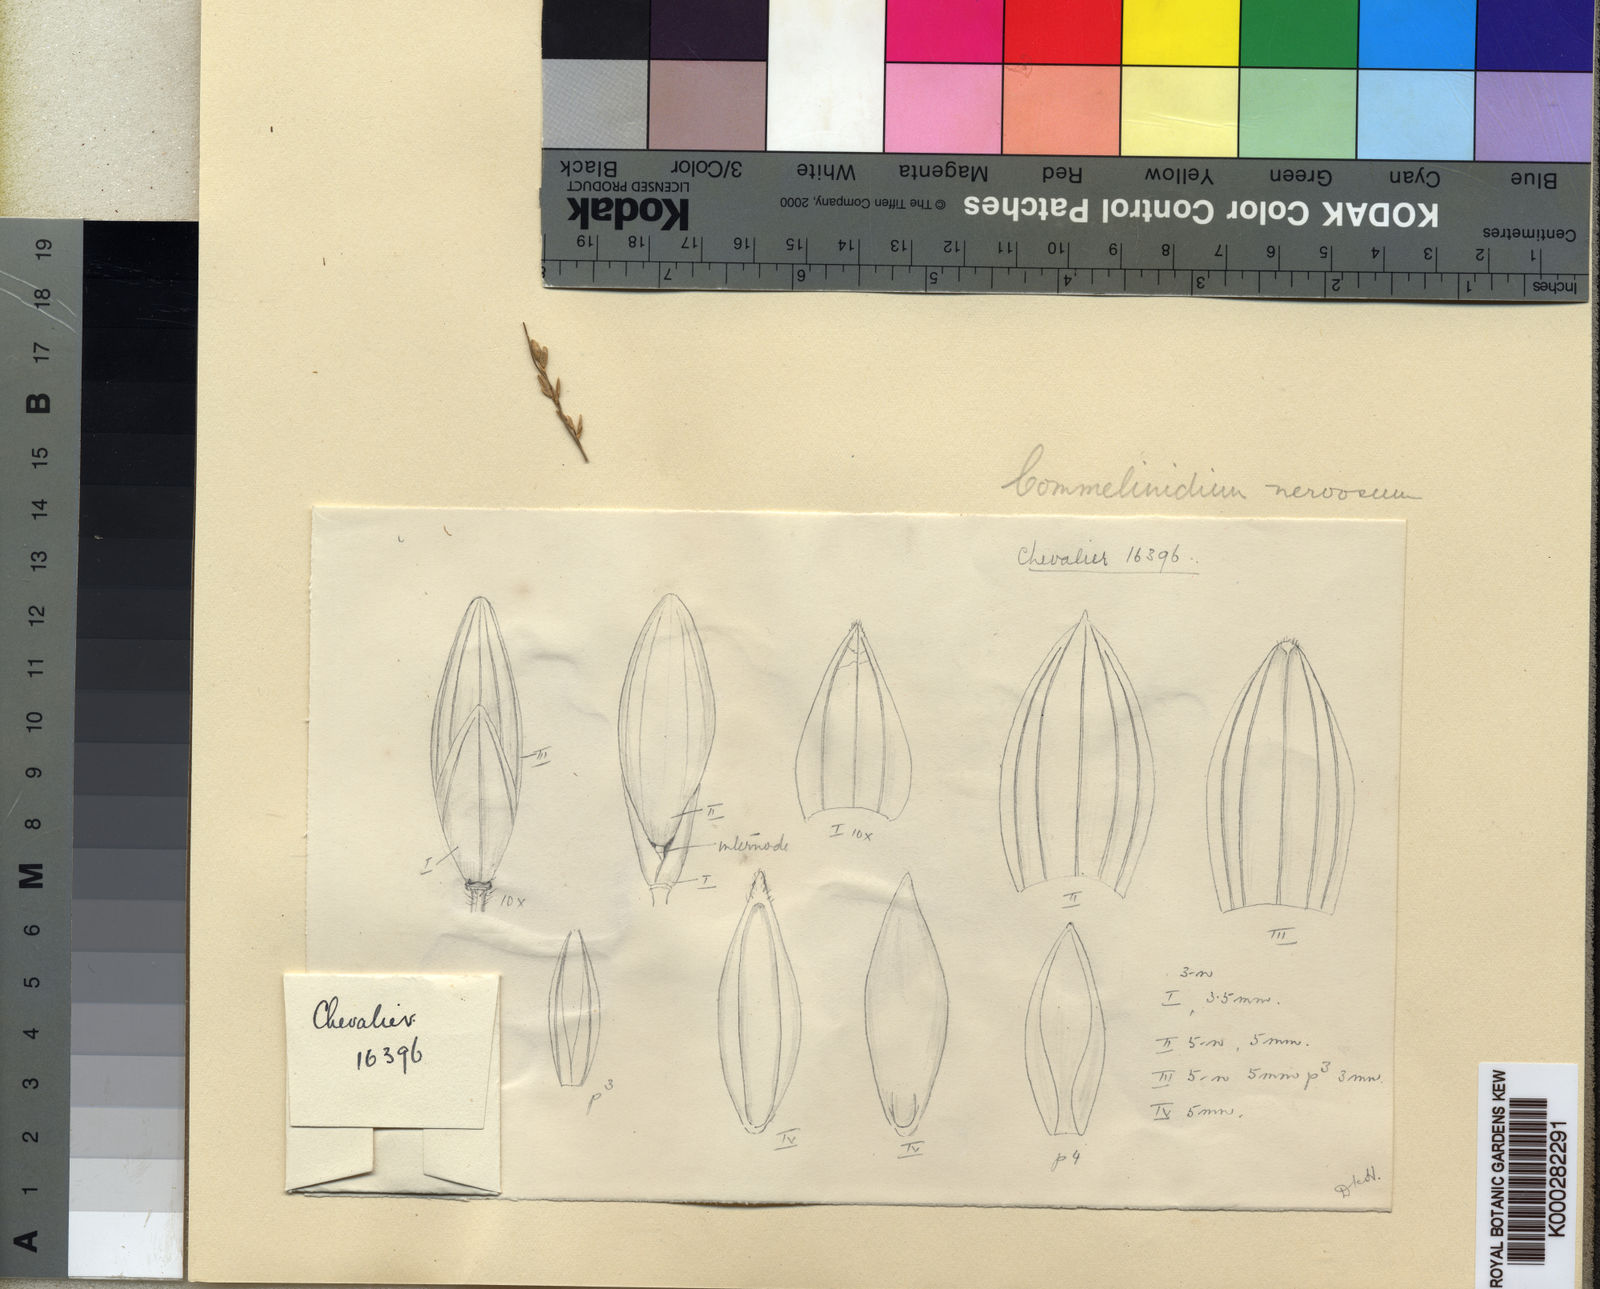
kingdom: Plantae
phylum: Tracheophyta
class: Liliopsida
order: Poales
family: Poaceae
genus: Acroceras
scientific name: Acroceras gabunense
